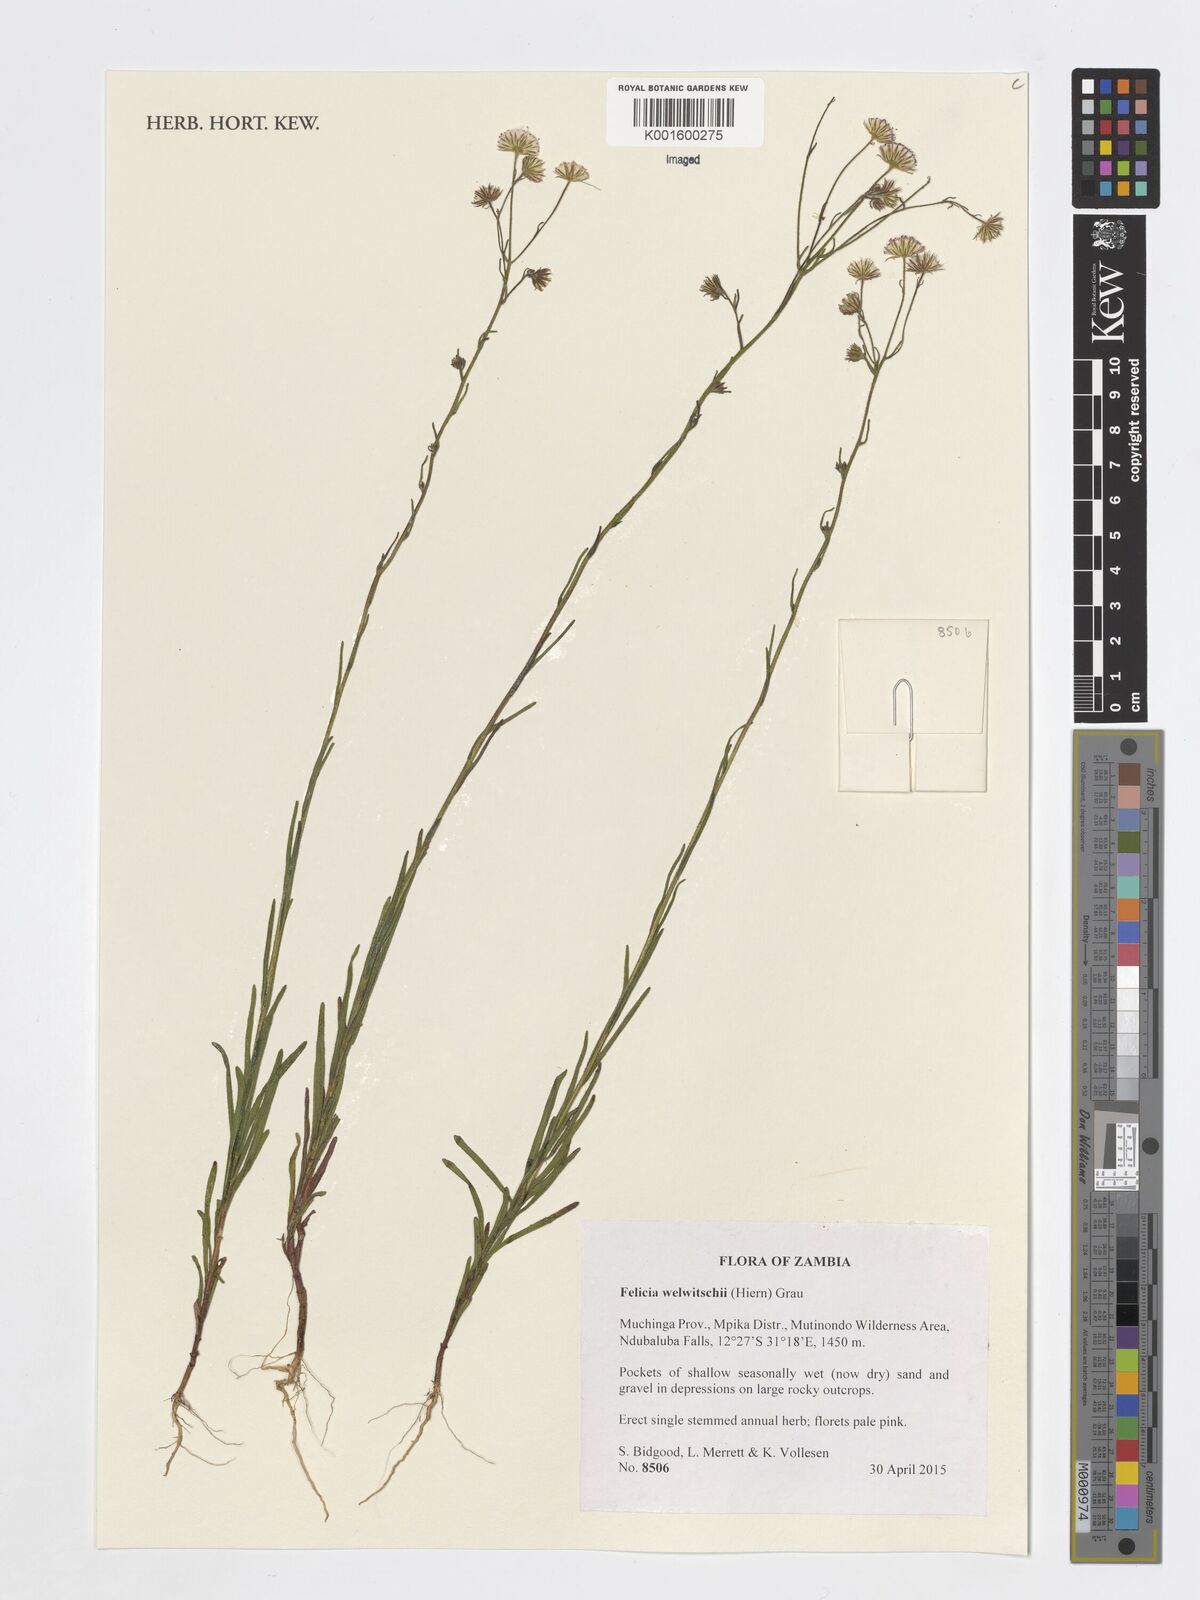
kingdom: Plantae
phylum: Tracheophyta
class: Magnoliopsida
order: Asterales
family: Asteraceae
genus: Felicia
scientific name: Felicia welwitschii
